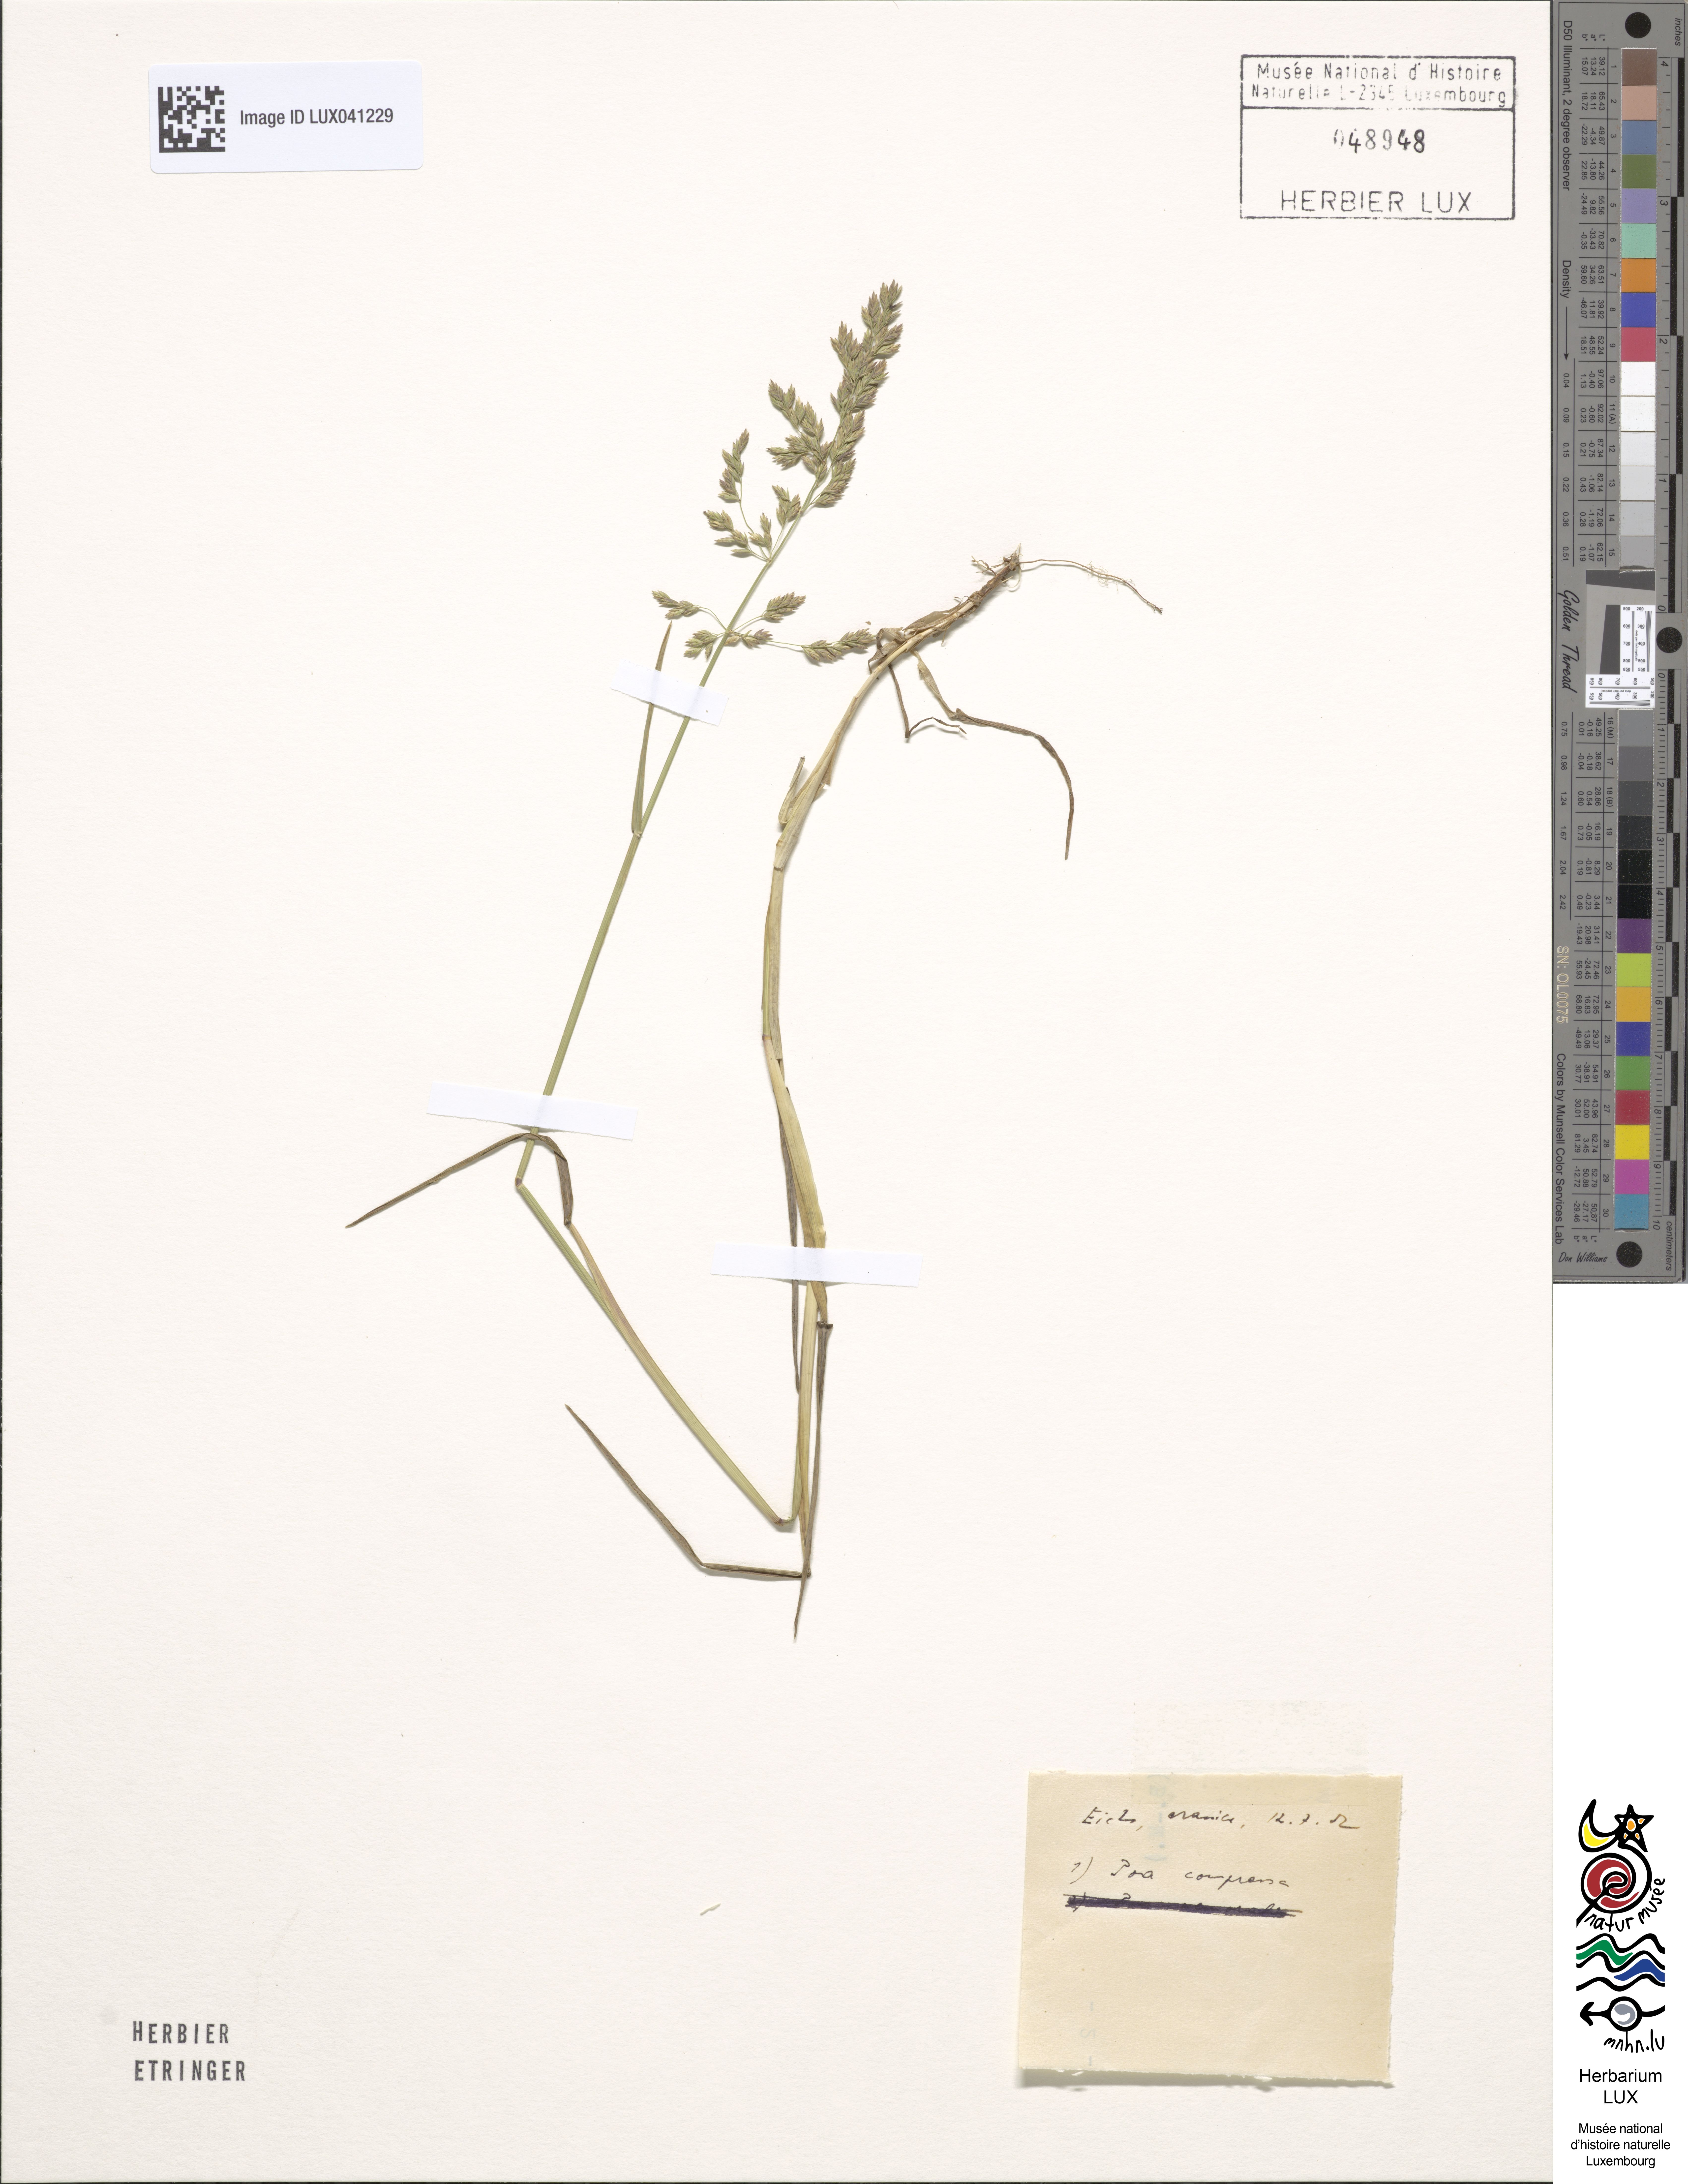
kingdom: Plantae
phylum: Tracheophyta
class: Liliopsida
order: Poales
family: Poaceae
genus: Poa
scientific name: Poa compressa
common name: Canada bluegrass
